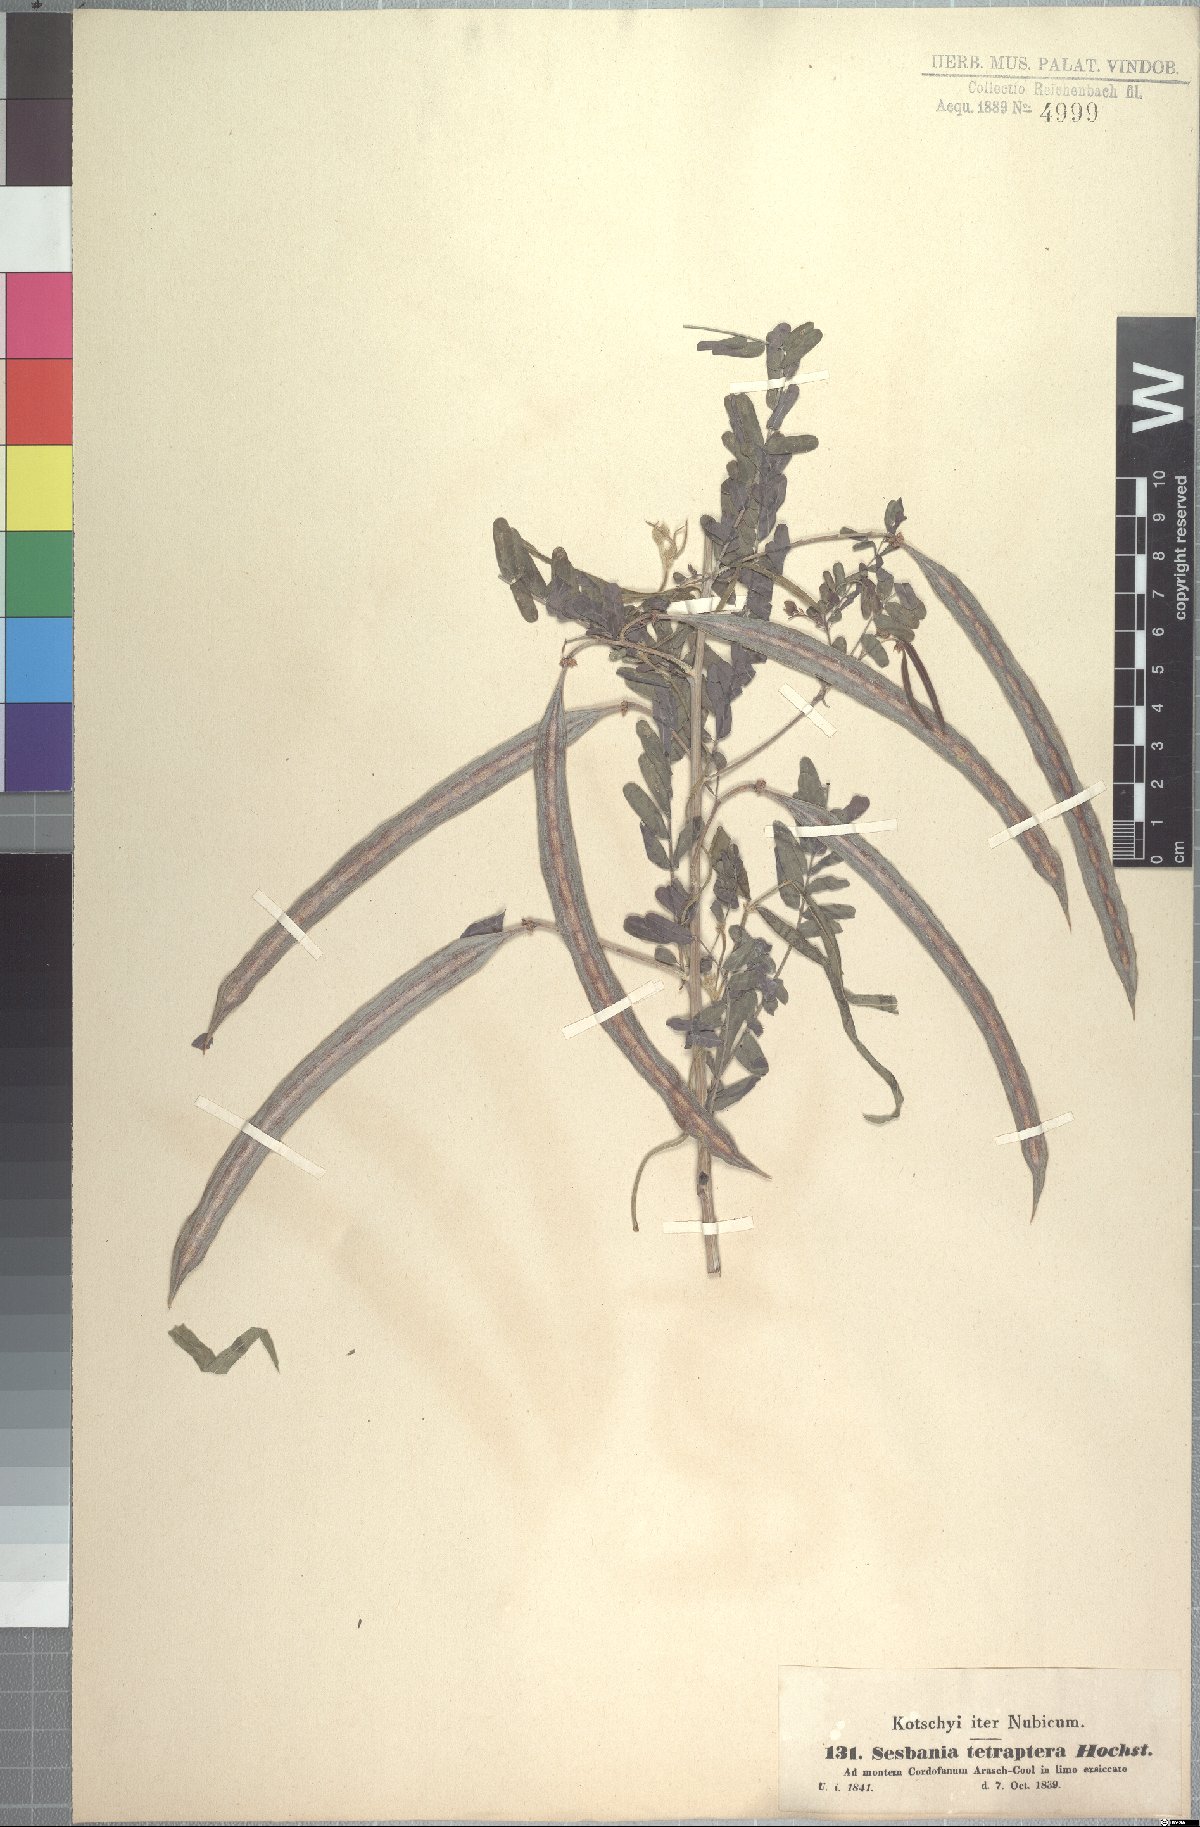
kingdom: Plantae
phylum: Tracheophyta
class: Magnoliopsida
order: Fabales
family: Fabaceae
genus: Sesbania
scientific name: Sesbania tetraptera
